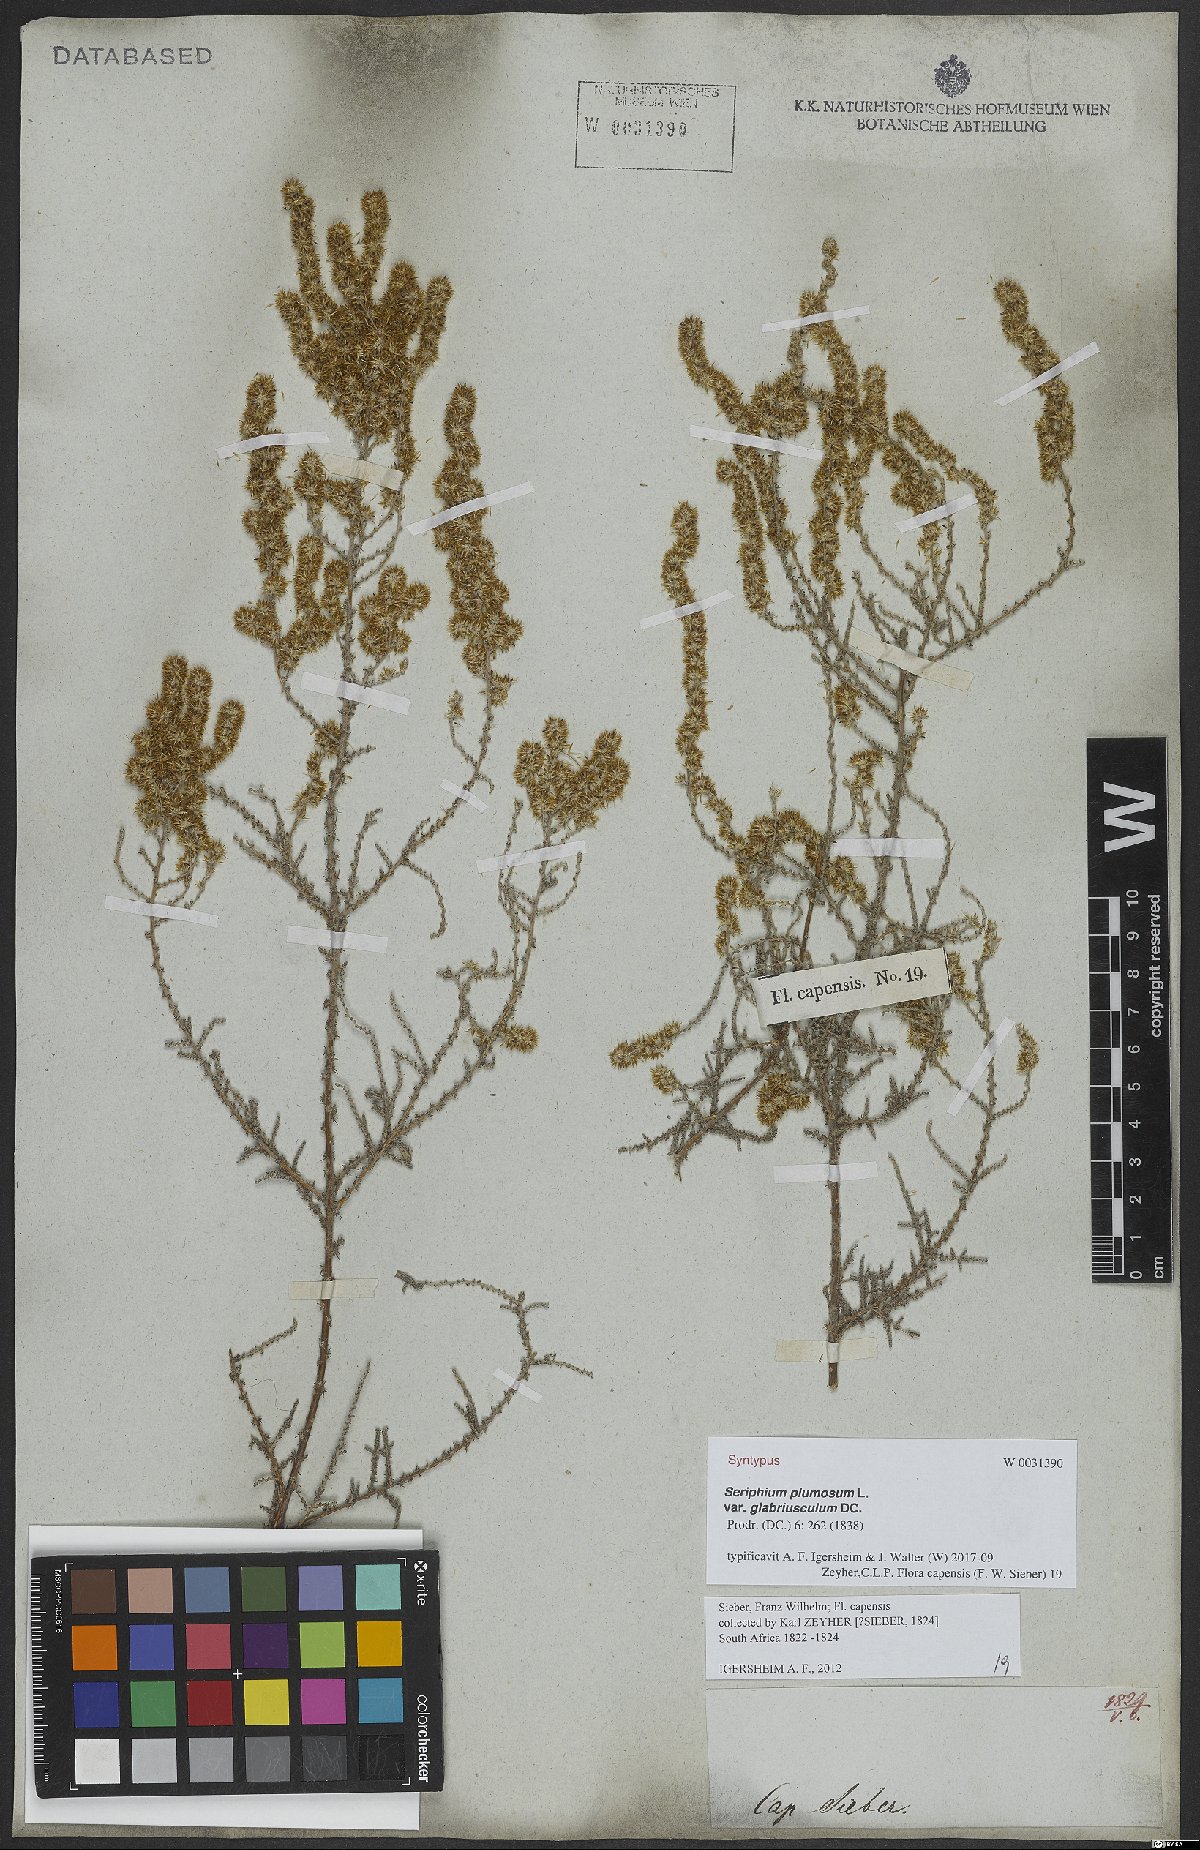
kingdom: Plantae
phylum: Tracheophyta
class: Magnoliopsida
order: Asterales
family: Asteraceae
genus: Seriphium
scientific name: Seriphium plumosum
